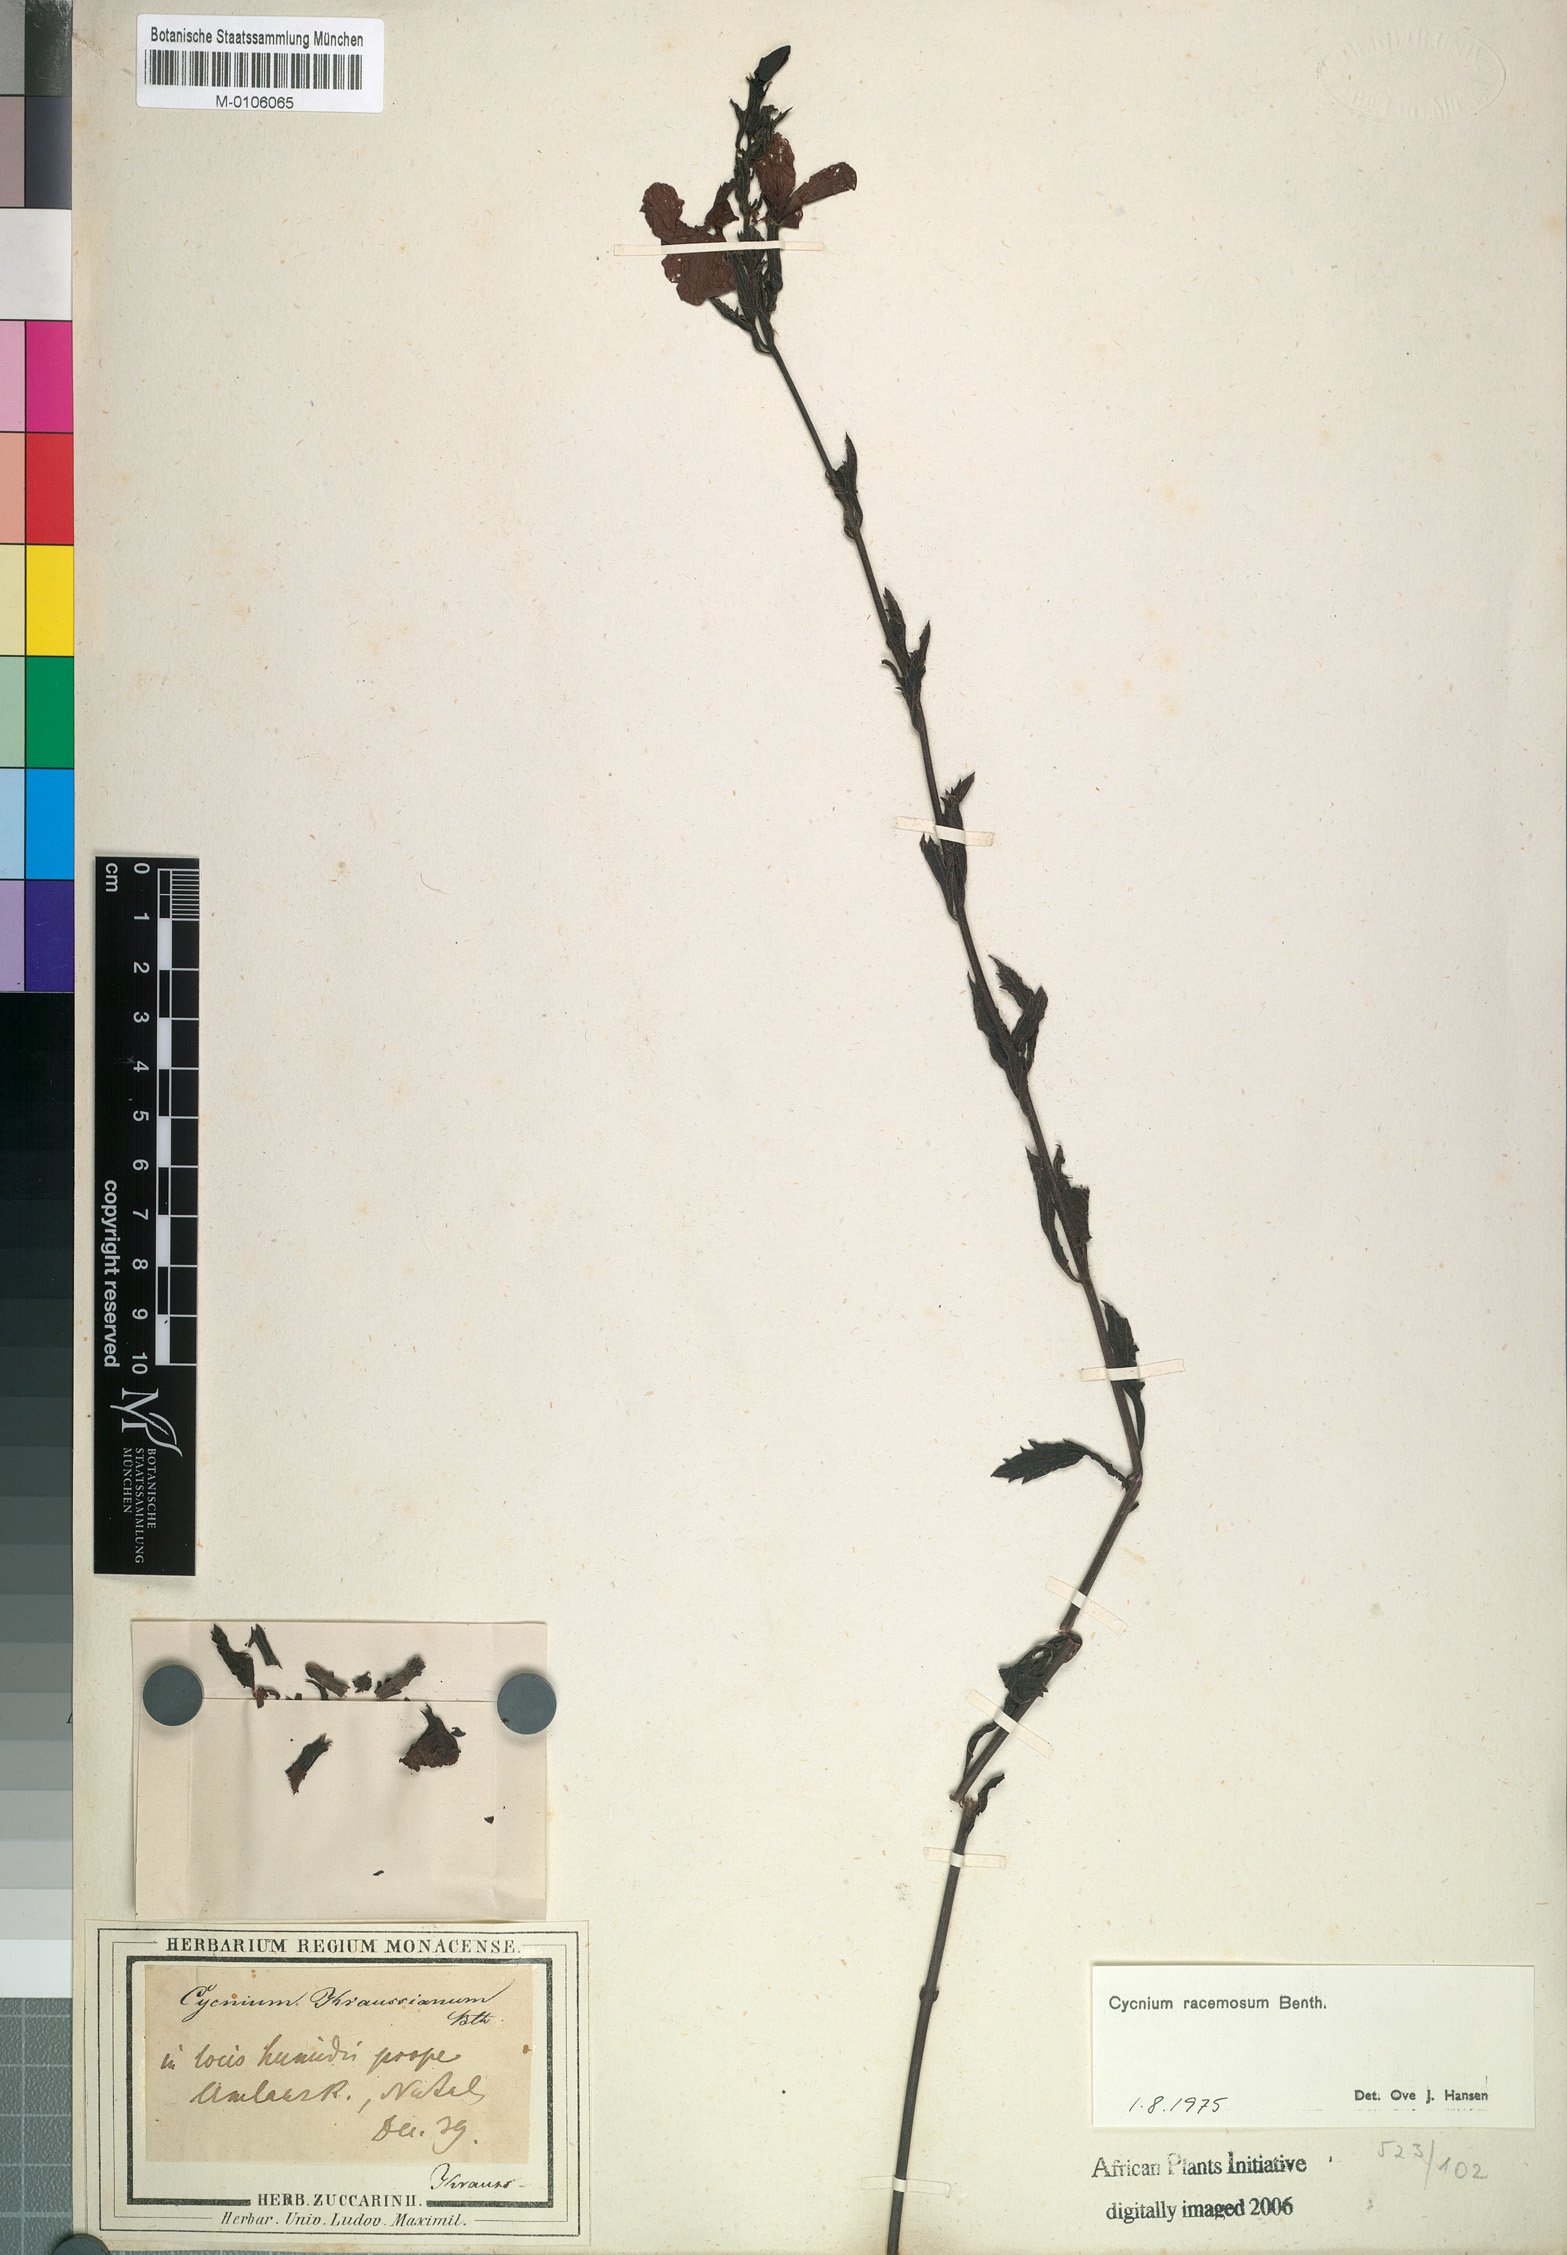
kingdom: Plantae
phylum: Tracheophyta
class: Magnoliopsida
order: Lamiales
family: Orobanchaceae
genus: Cycnium
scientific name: Cycnium racemosum
